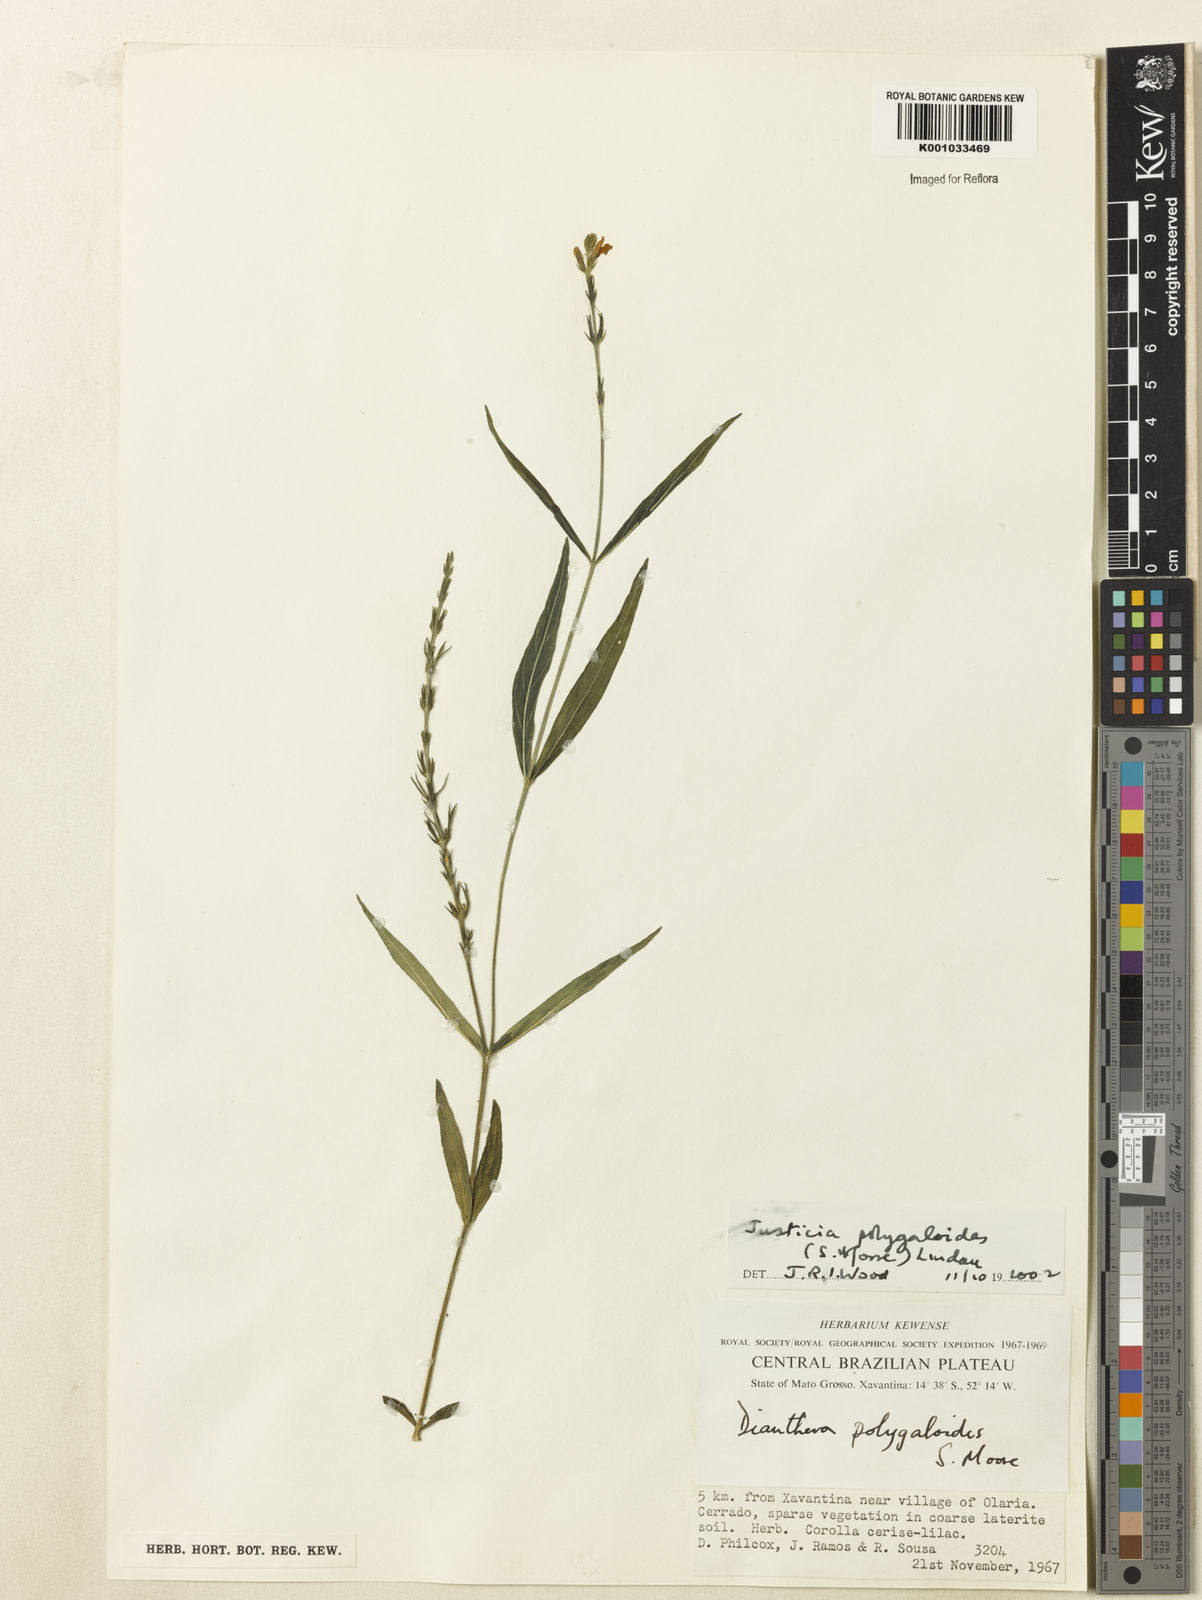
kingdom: Plantae
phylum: Tracheophyta
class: Magnoliopsida
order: Lamiales
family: Acanthaceae
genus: Dianthera
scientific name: Dianthera polygaloides
